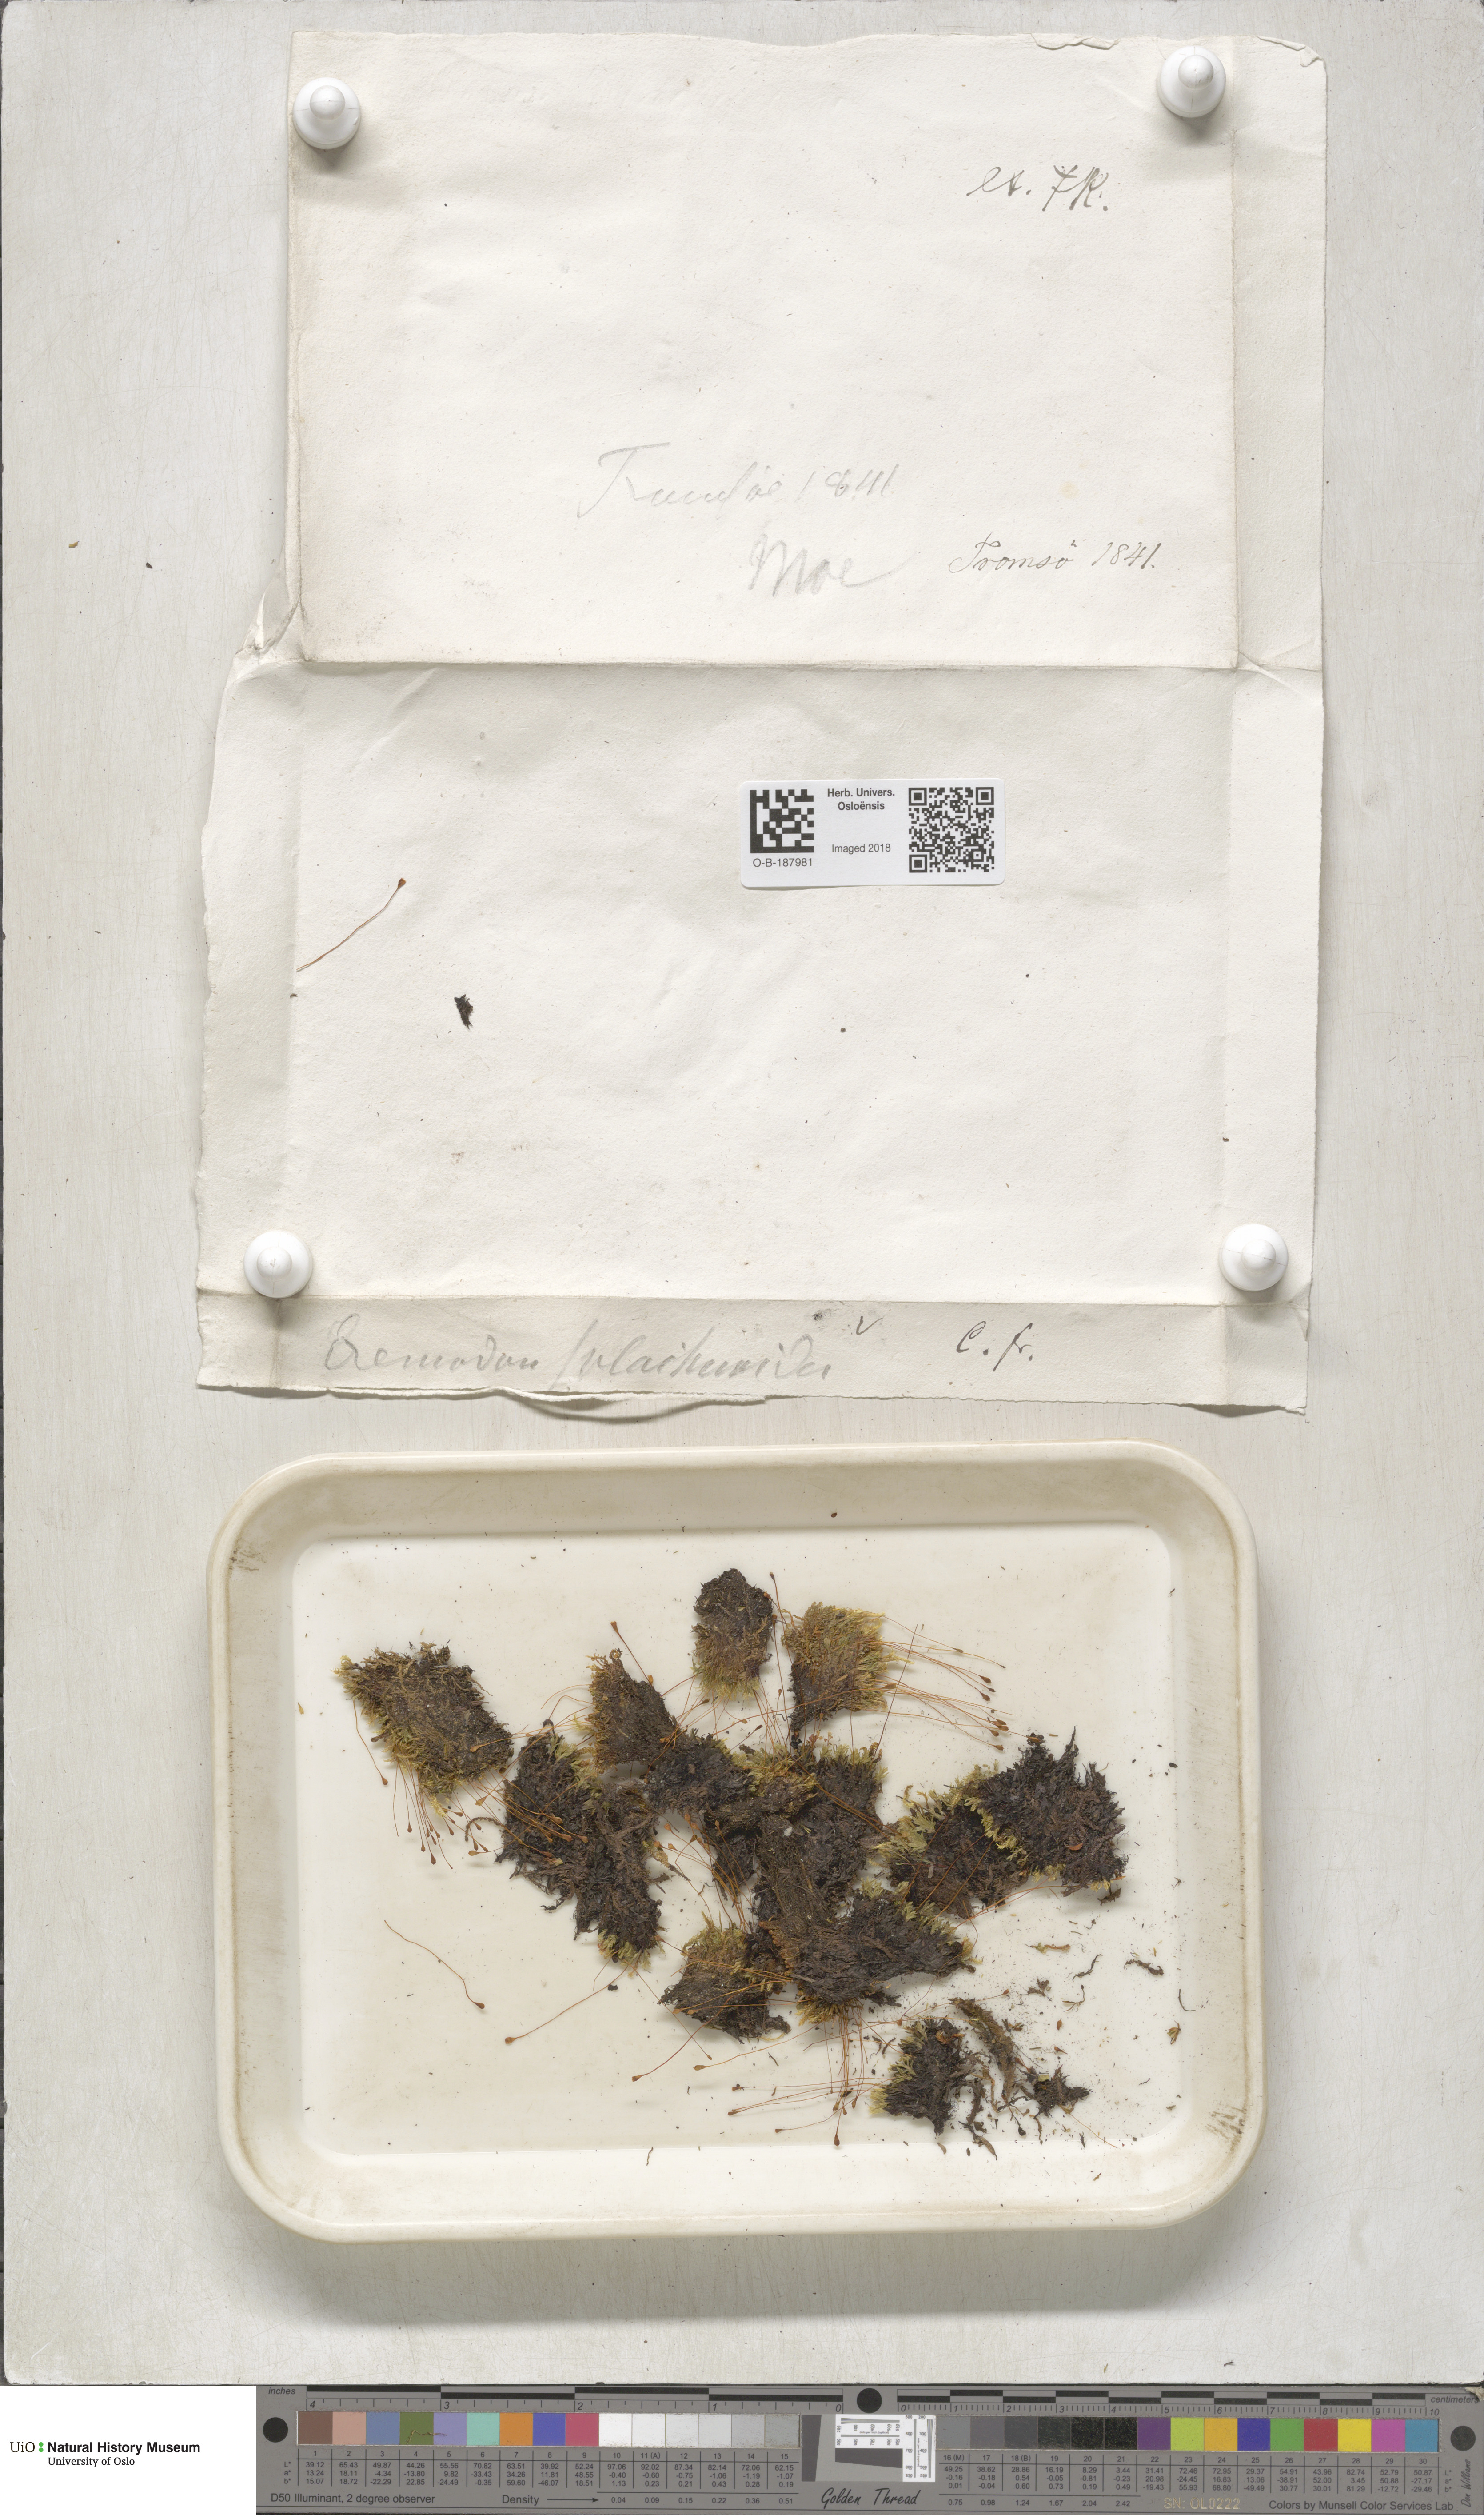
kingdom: Plantae
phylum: Bryophyta
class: Bryopsida
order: Splachnales
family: Splachnaceae
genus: Tayloria
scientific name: Tayloria lingulata
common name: Tongue-leaved trumpet moss
